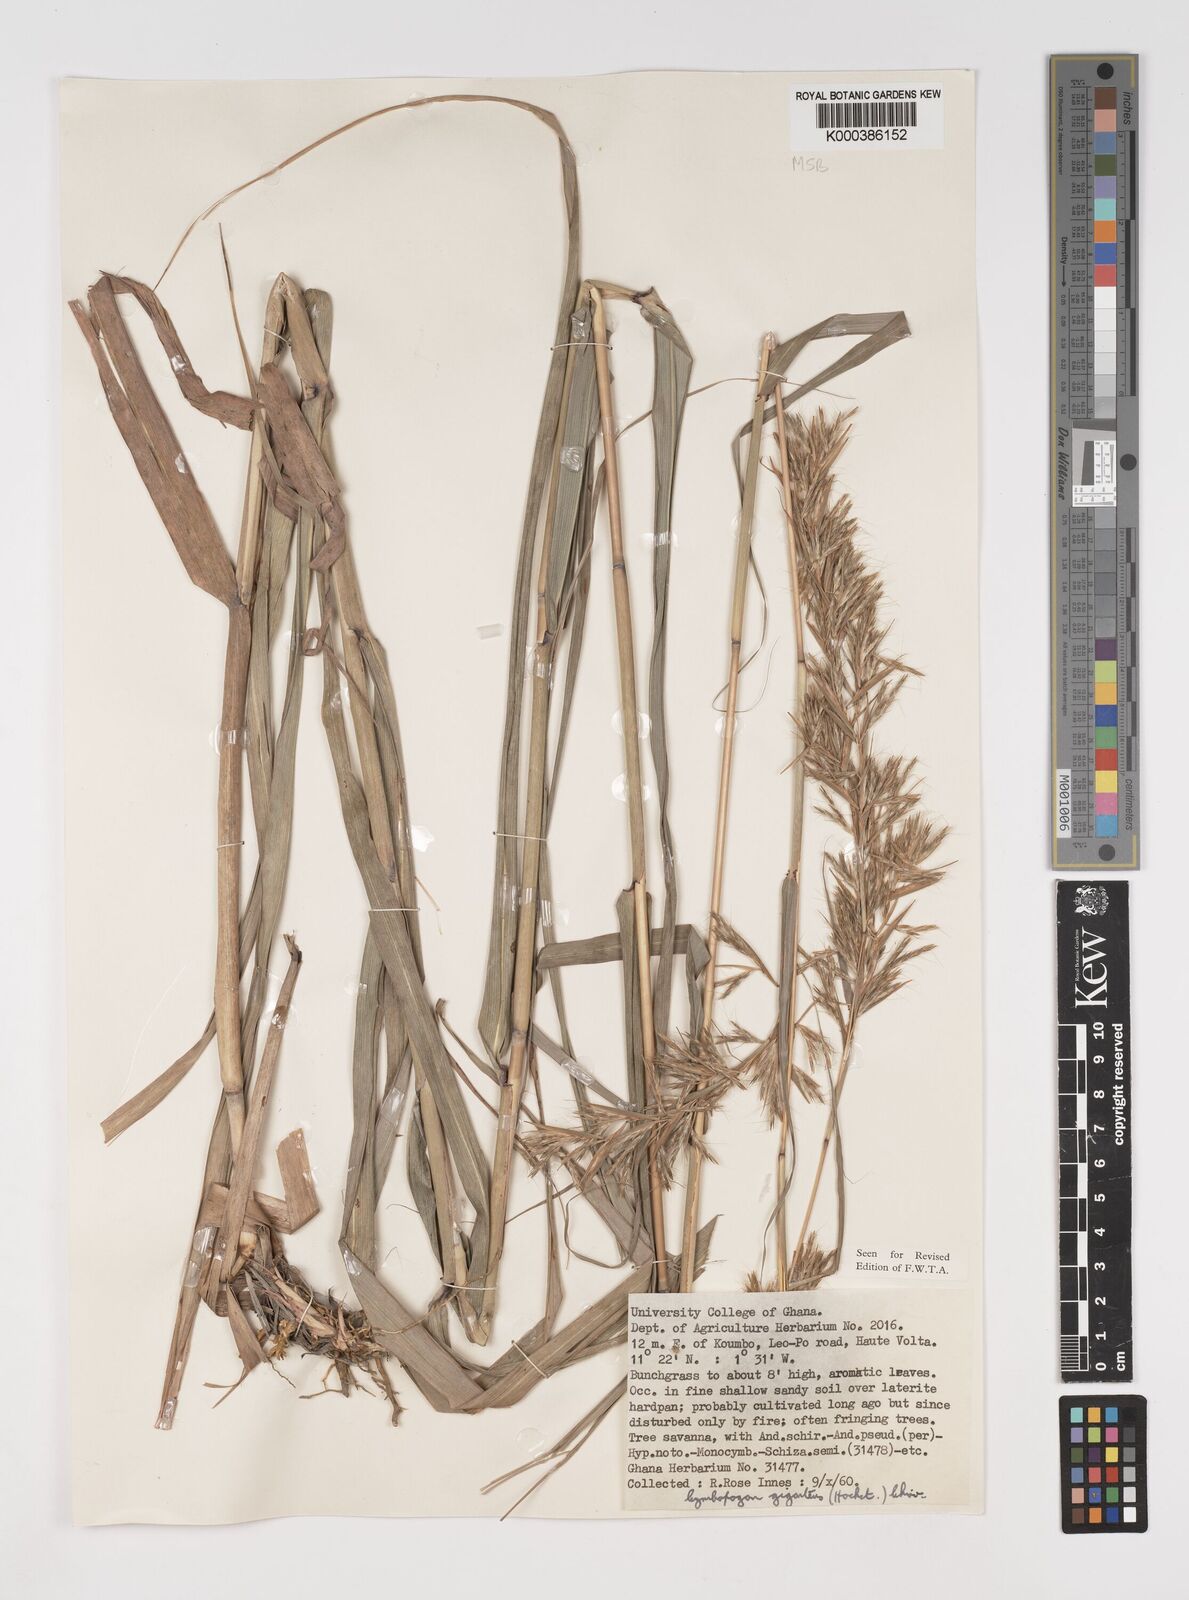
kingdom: Plantae
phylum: Tracheophyta
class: Liliopsida
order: Poales
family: Poaceae
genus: Cymbopogon
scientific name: Cymbopogon giganteus
